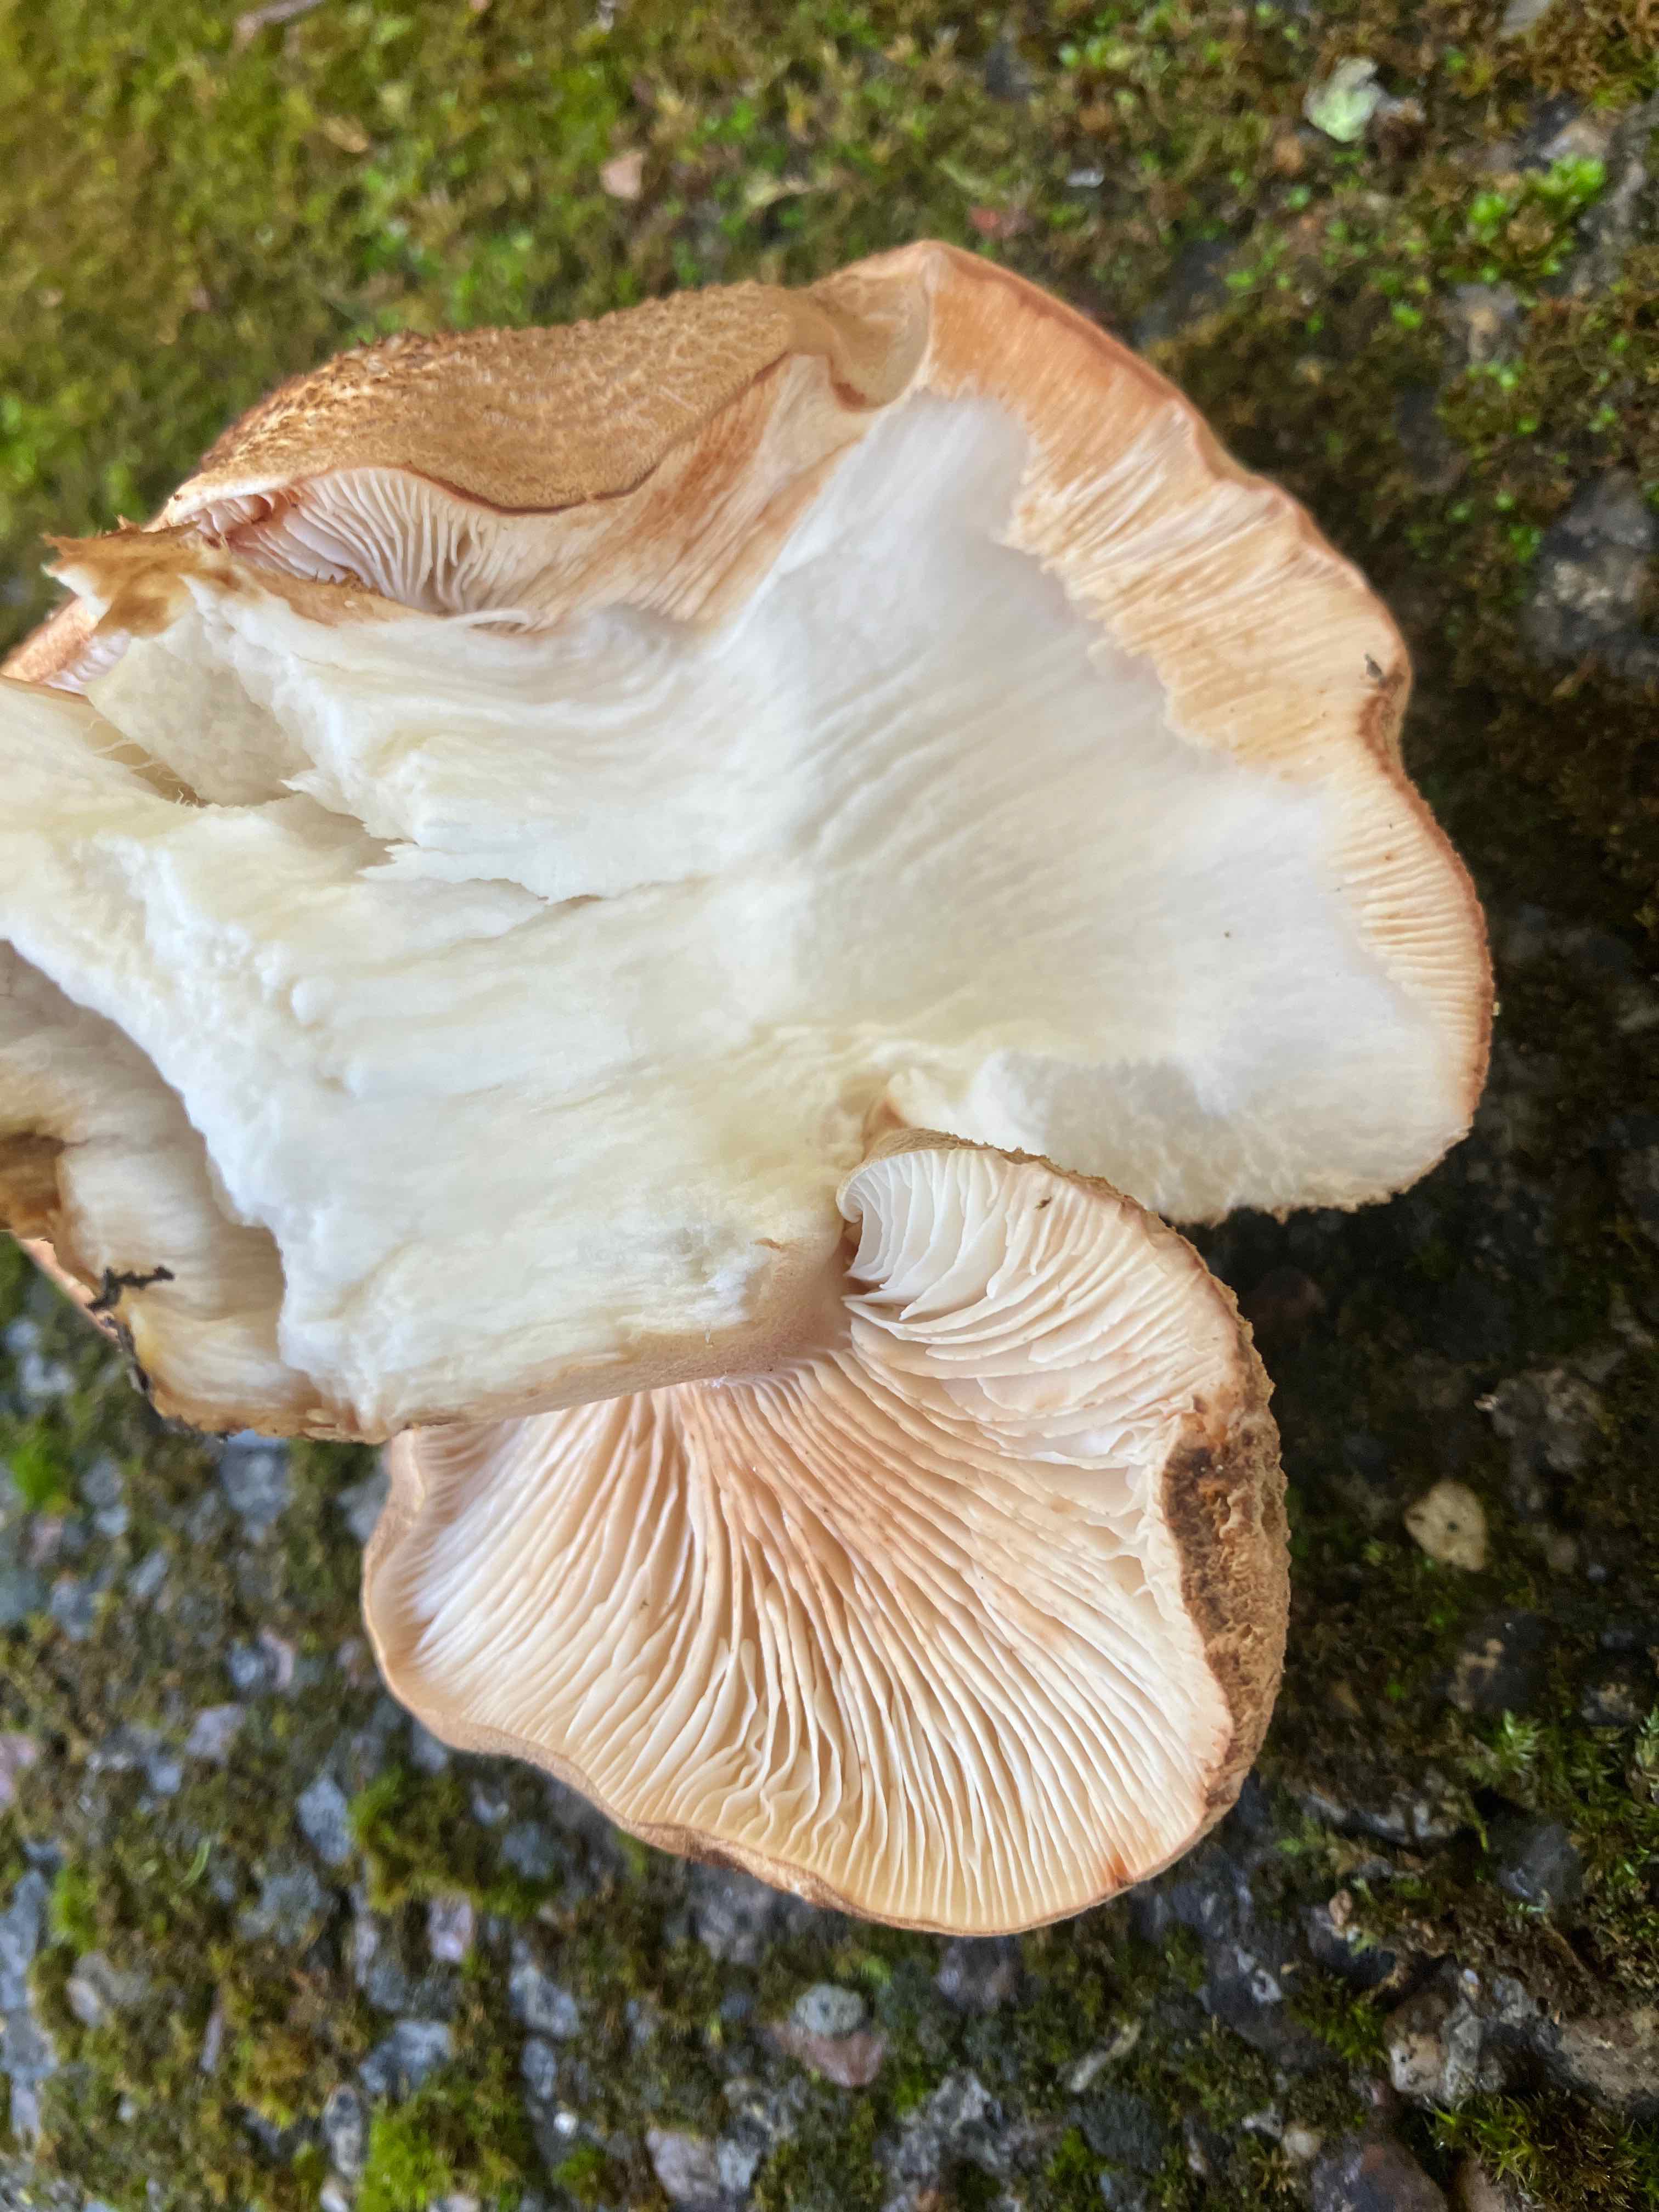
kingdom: Fungi
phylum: Basidiomycota
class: Agaricomycetes
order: Agaricales
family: Tricholomataceae
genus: Tricholoma
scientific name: Tricholoma imbricatum
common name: skællet ridderhat
